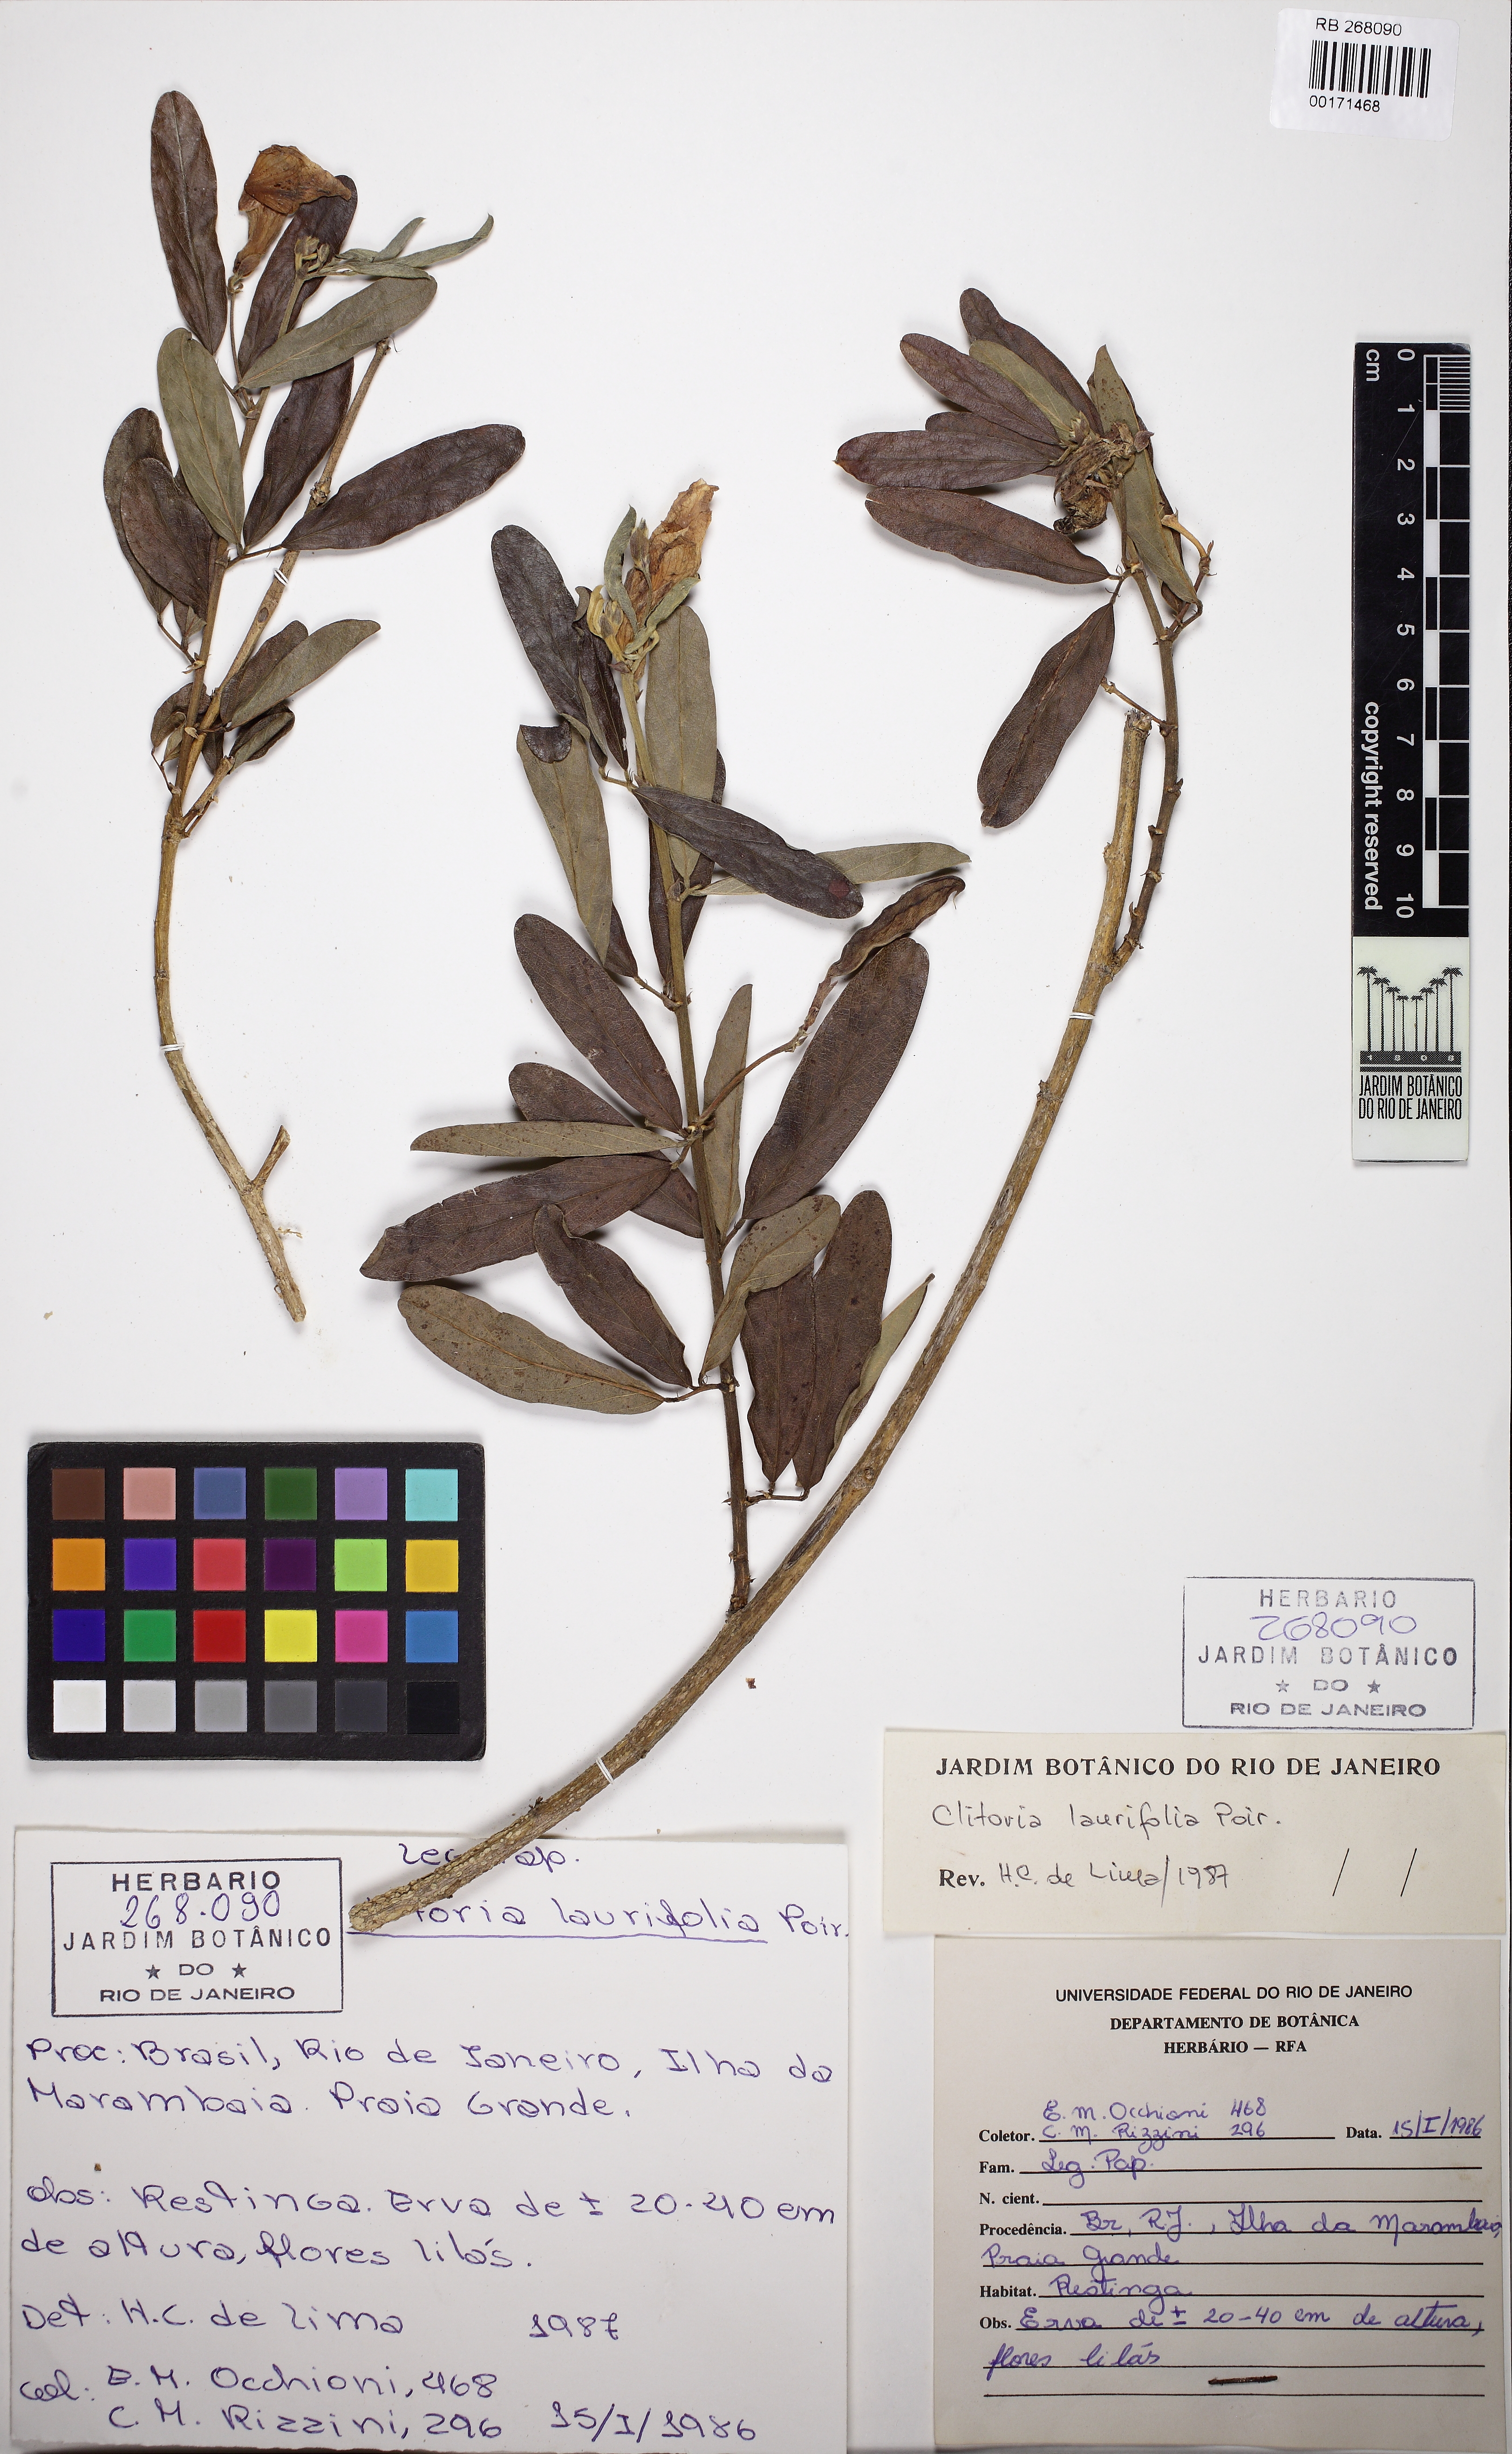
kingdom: Plantae
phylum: Tracheophyta
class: Magnoliopsida
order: Fabales
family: Fabaceae
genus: Clitoria
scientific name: Clitoria laurifolia
